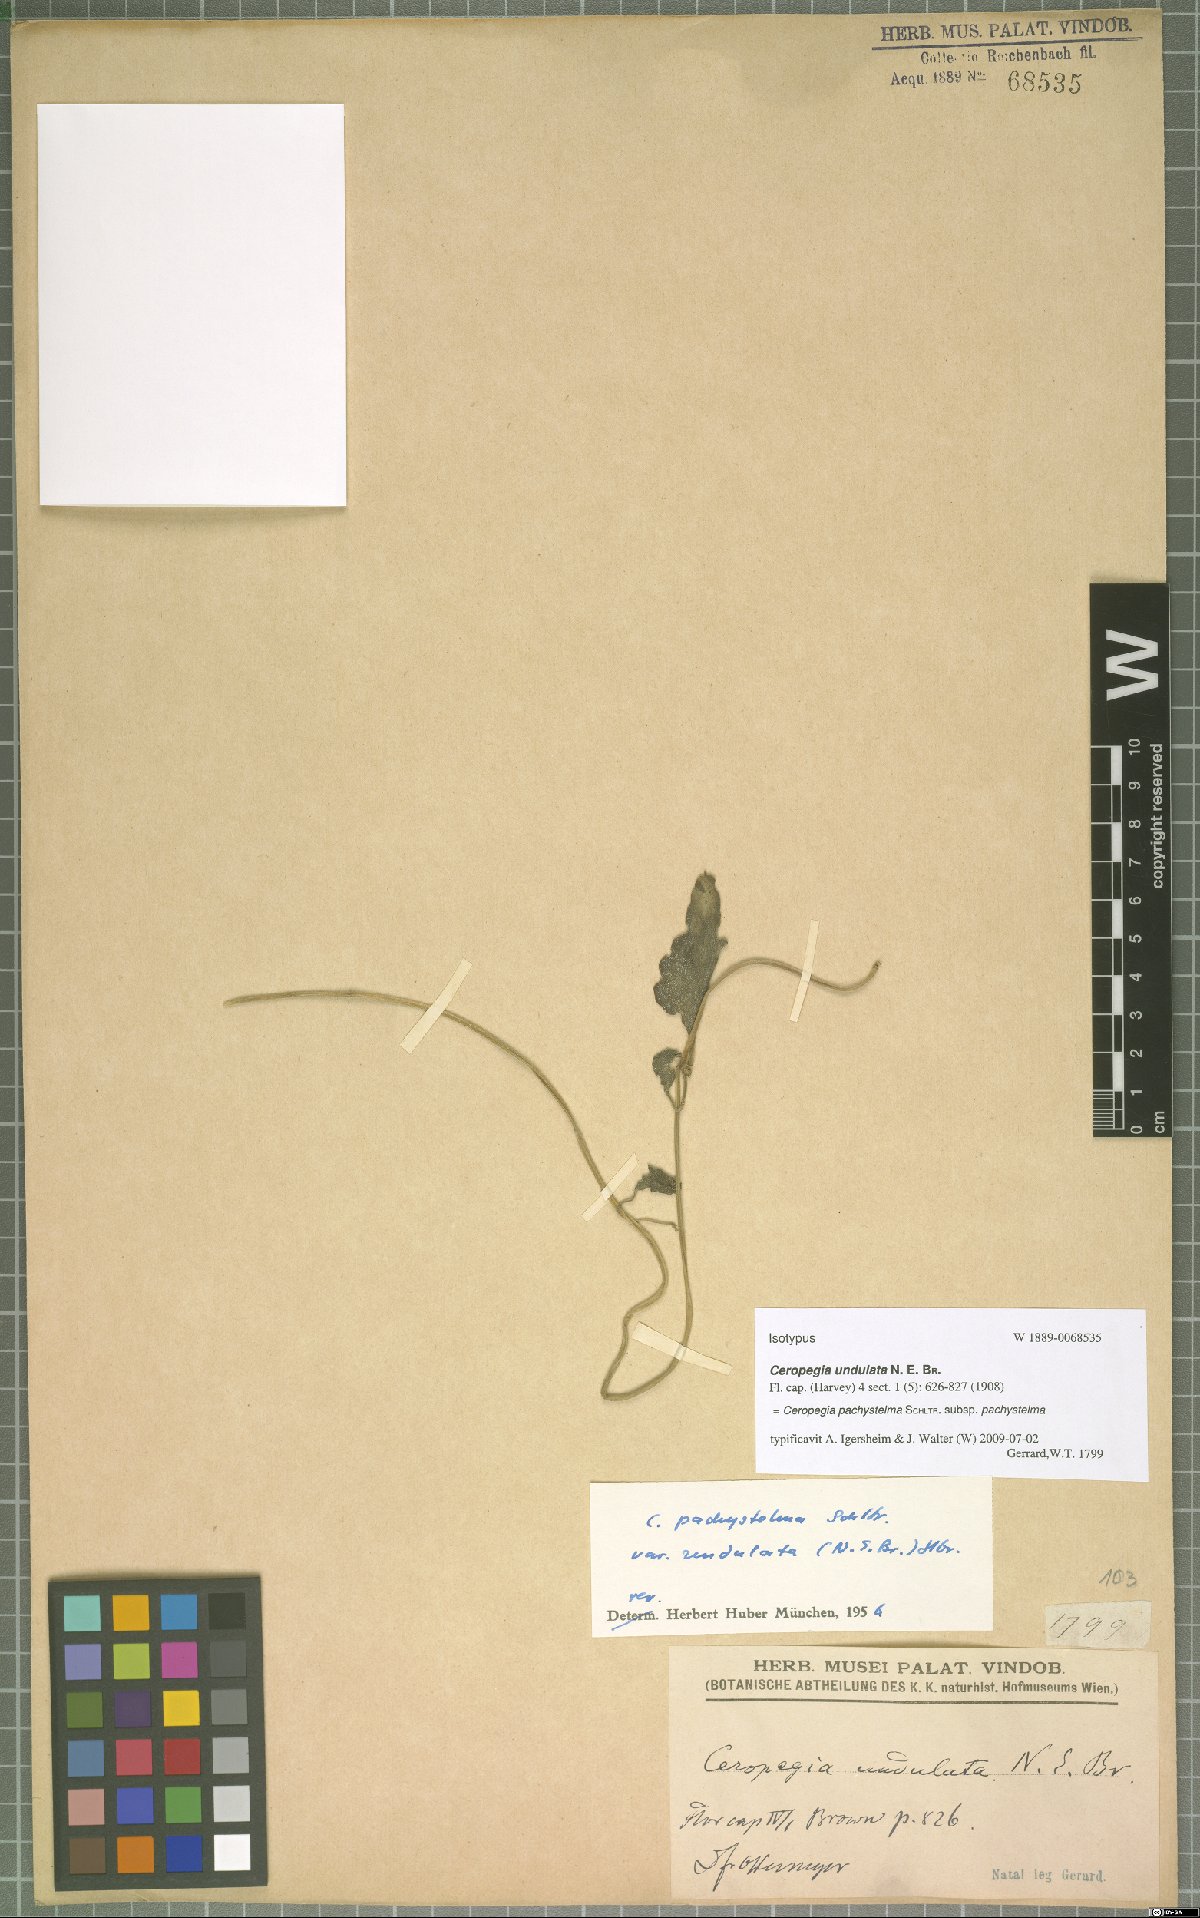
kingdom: Plantae
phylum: Tracheophyta
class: Magnoliopsida
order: Gentianales
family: Apocynaceae
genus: Ceropegia
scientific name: Ceropegia pachystelma
